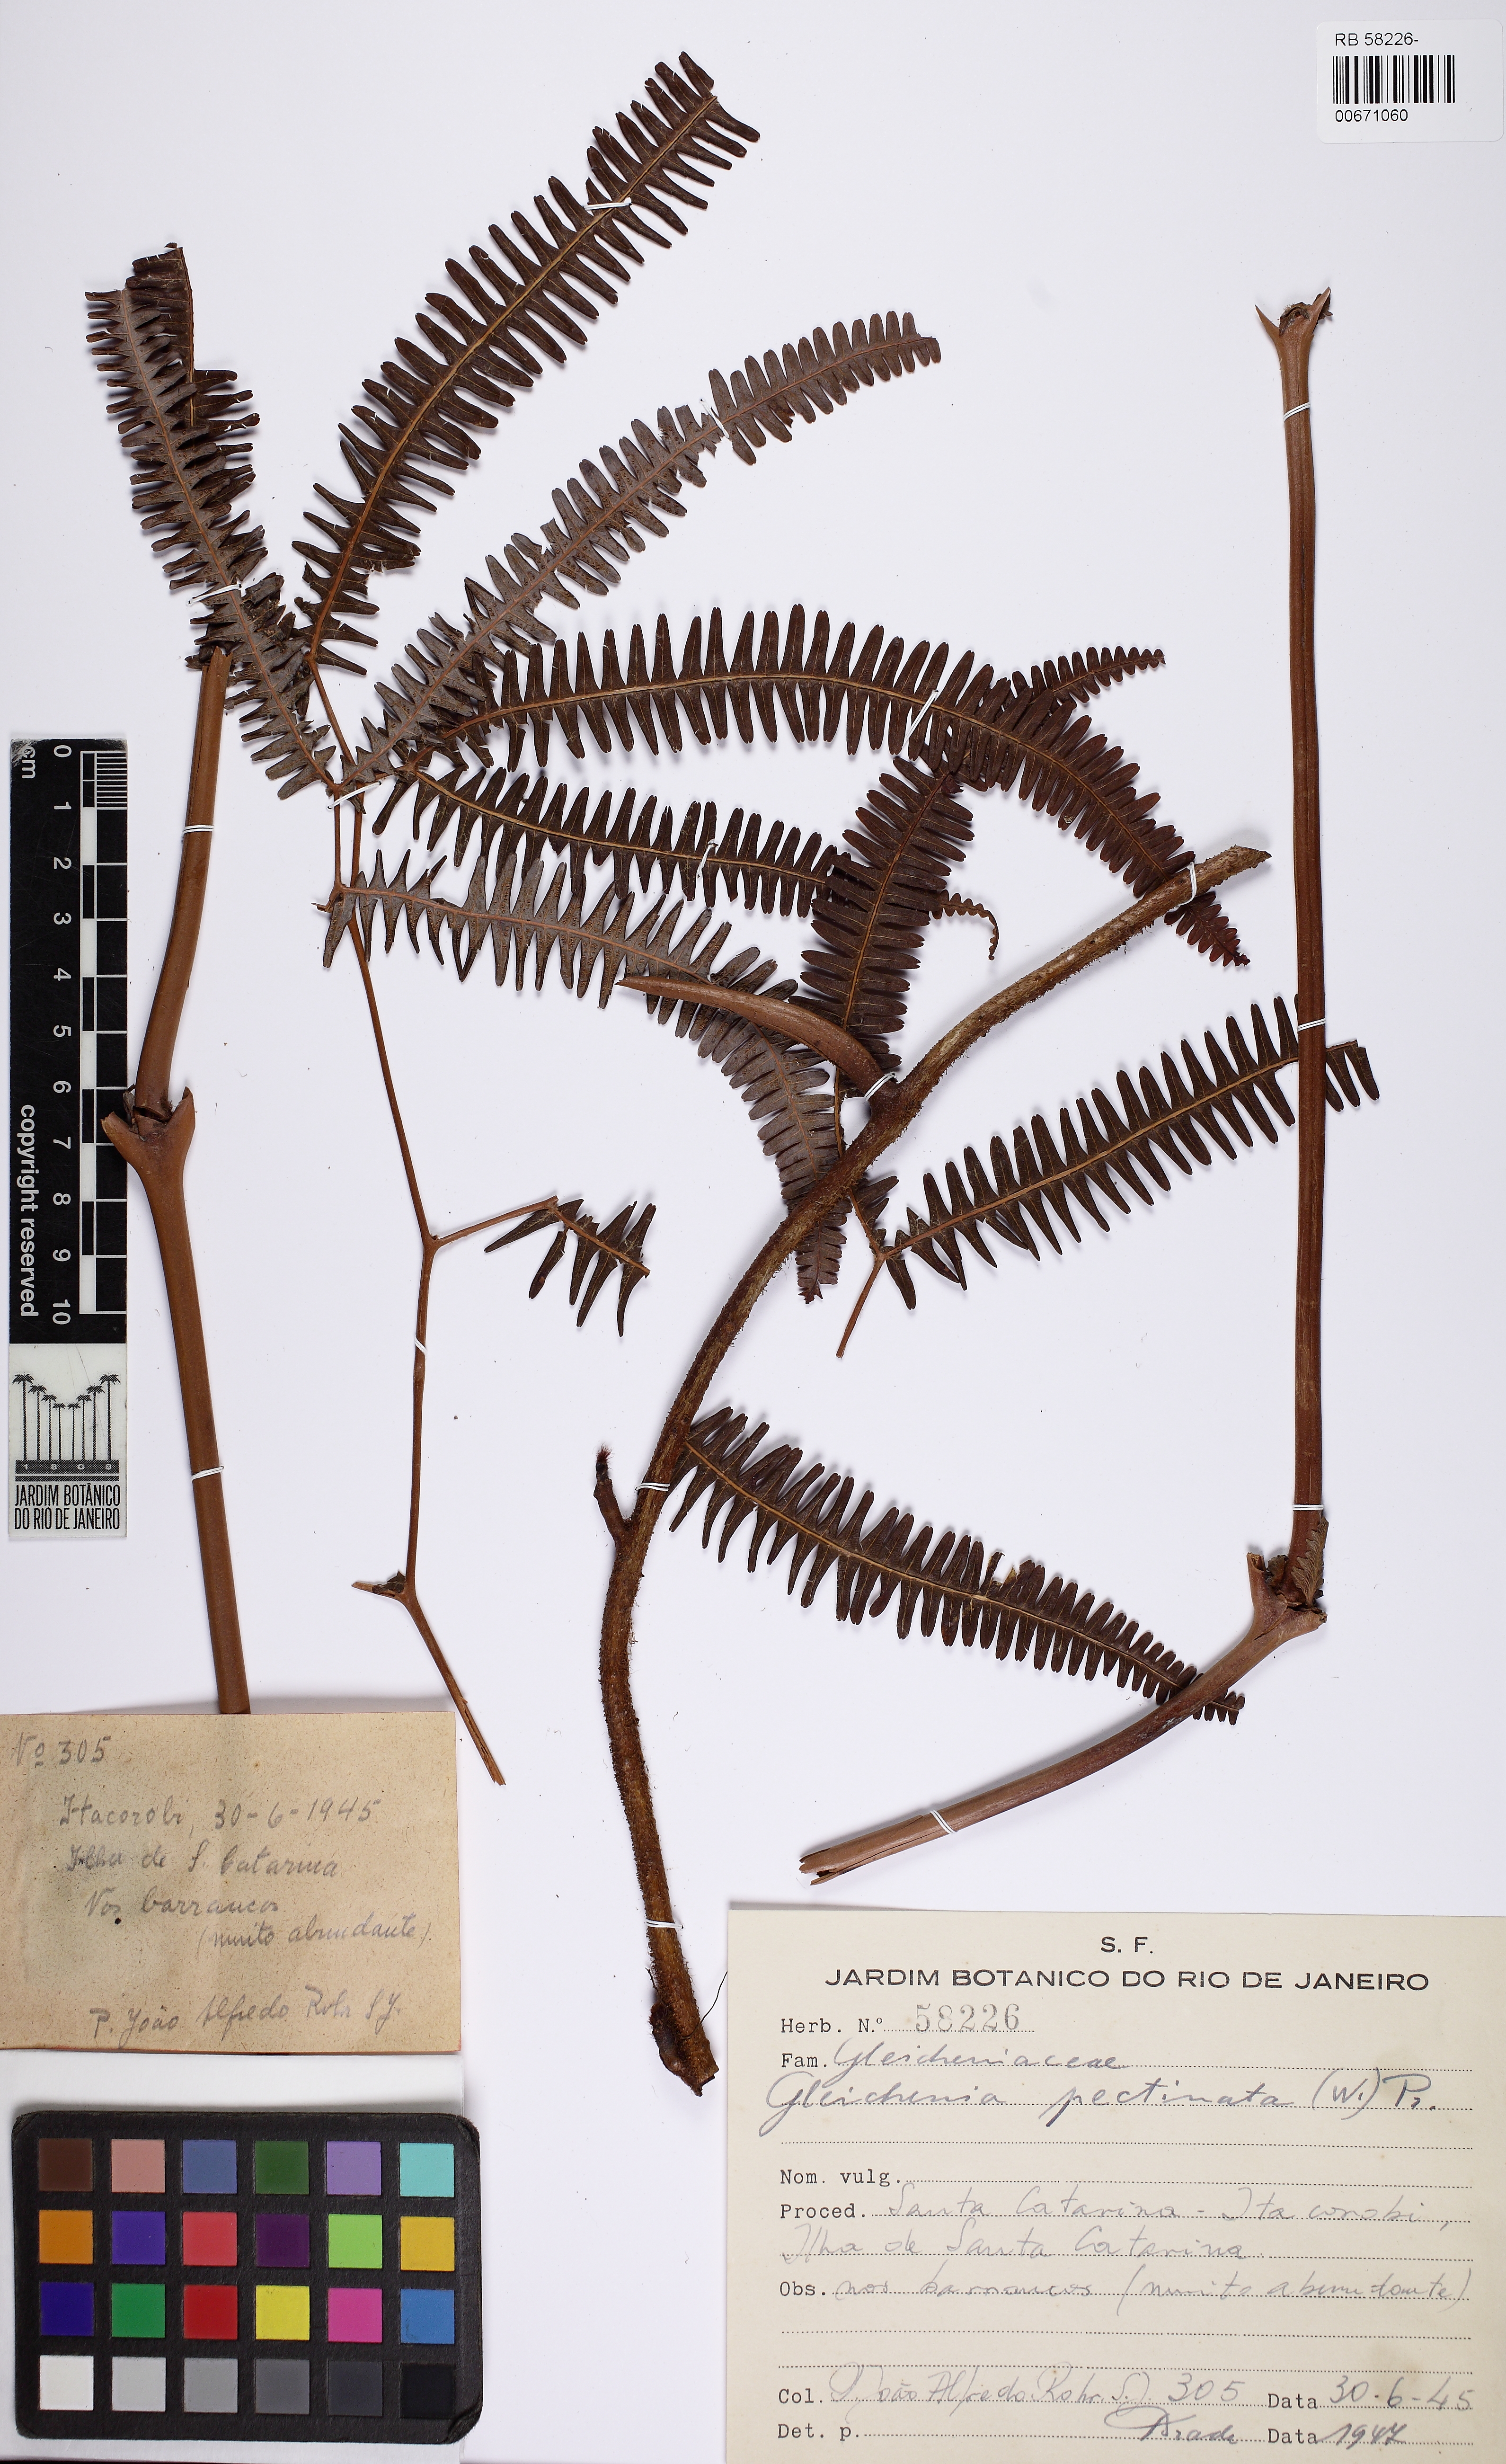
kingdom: Plantae
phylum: Tracheophyta
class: Polypodiopsida
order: Gleicheniales
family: Gleicheniaceae
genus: Gleichenella
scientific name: Gleichenella pectinata
